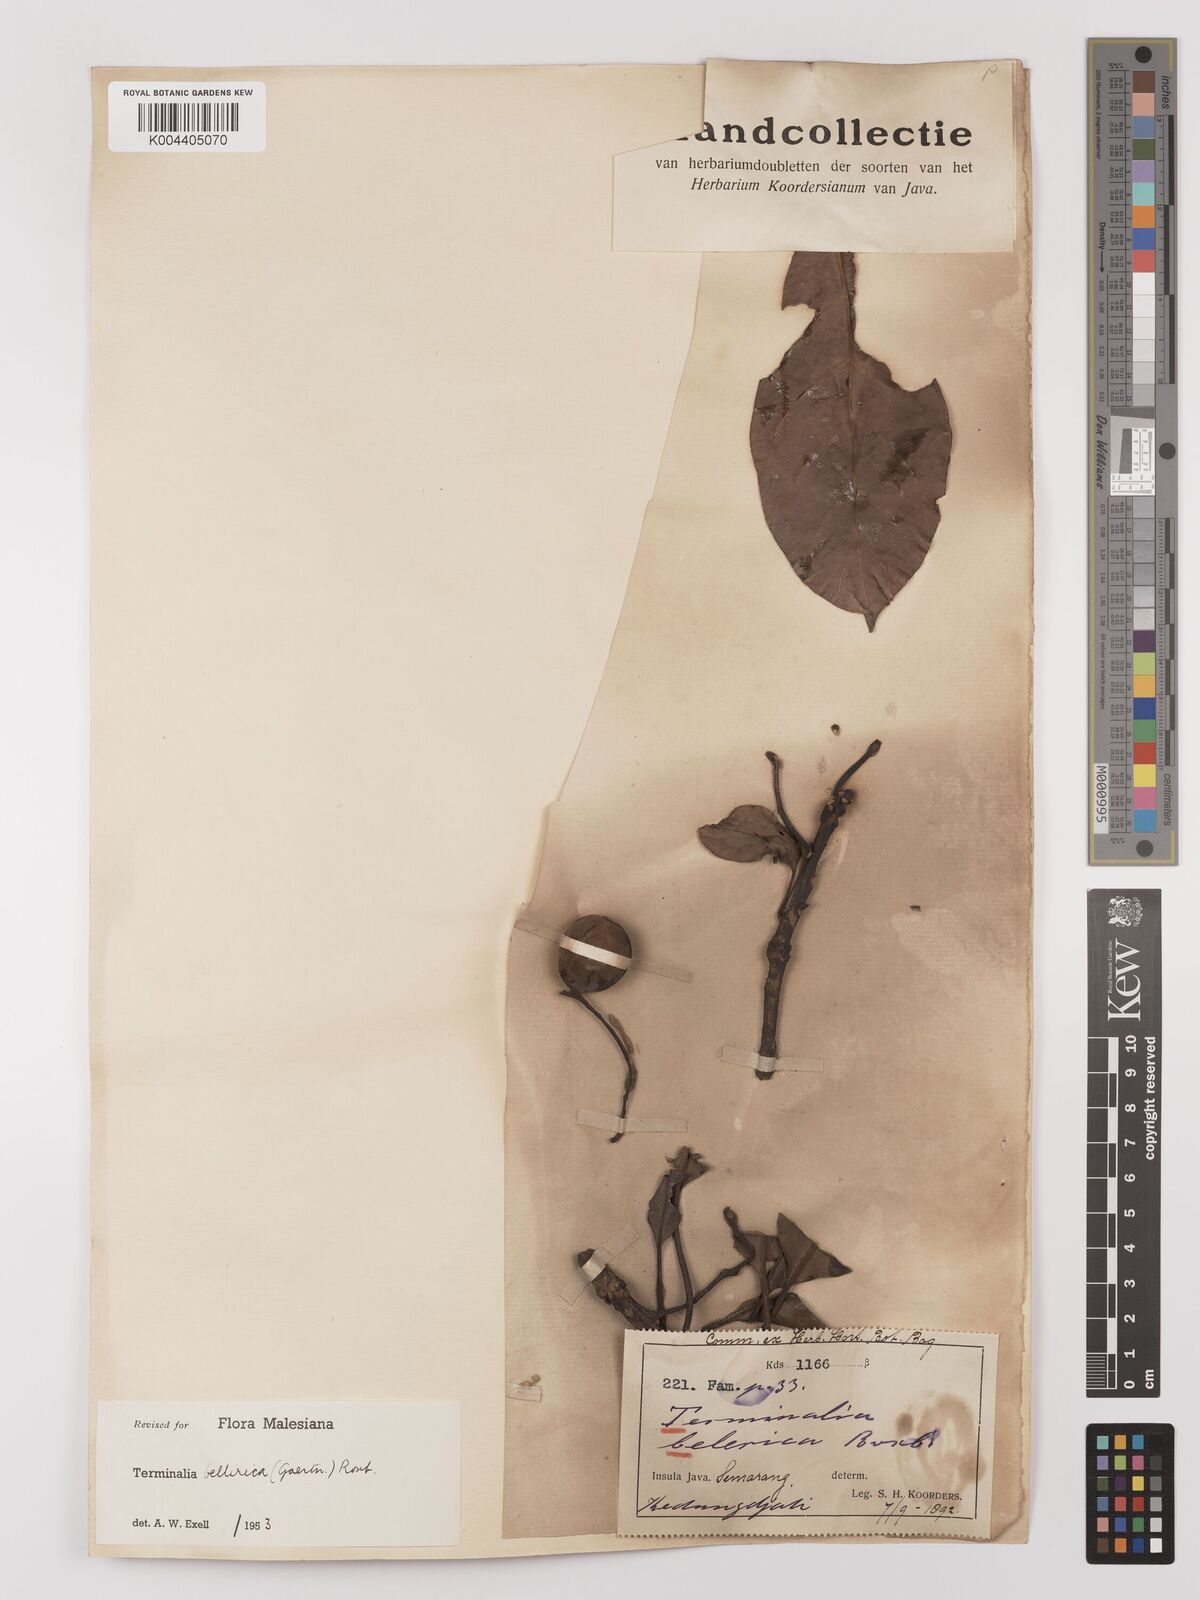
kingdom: Plantae
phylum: Tracheophyta
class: Magnoliopsida
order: Myrtales
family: Combretaceae
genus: Terminalia
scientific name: Terminalia bellirica
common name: Beleric myrobalan
